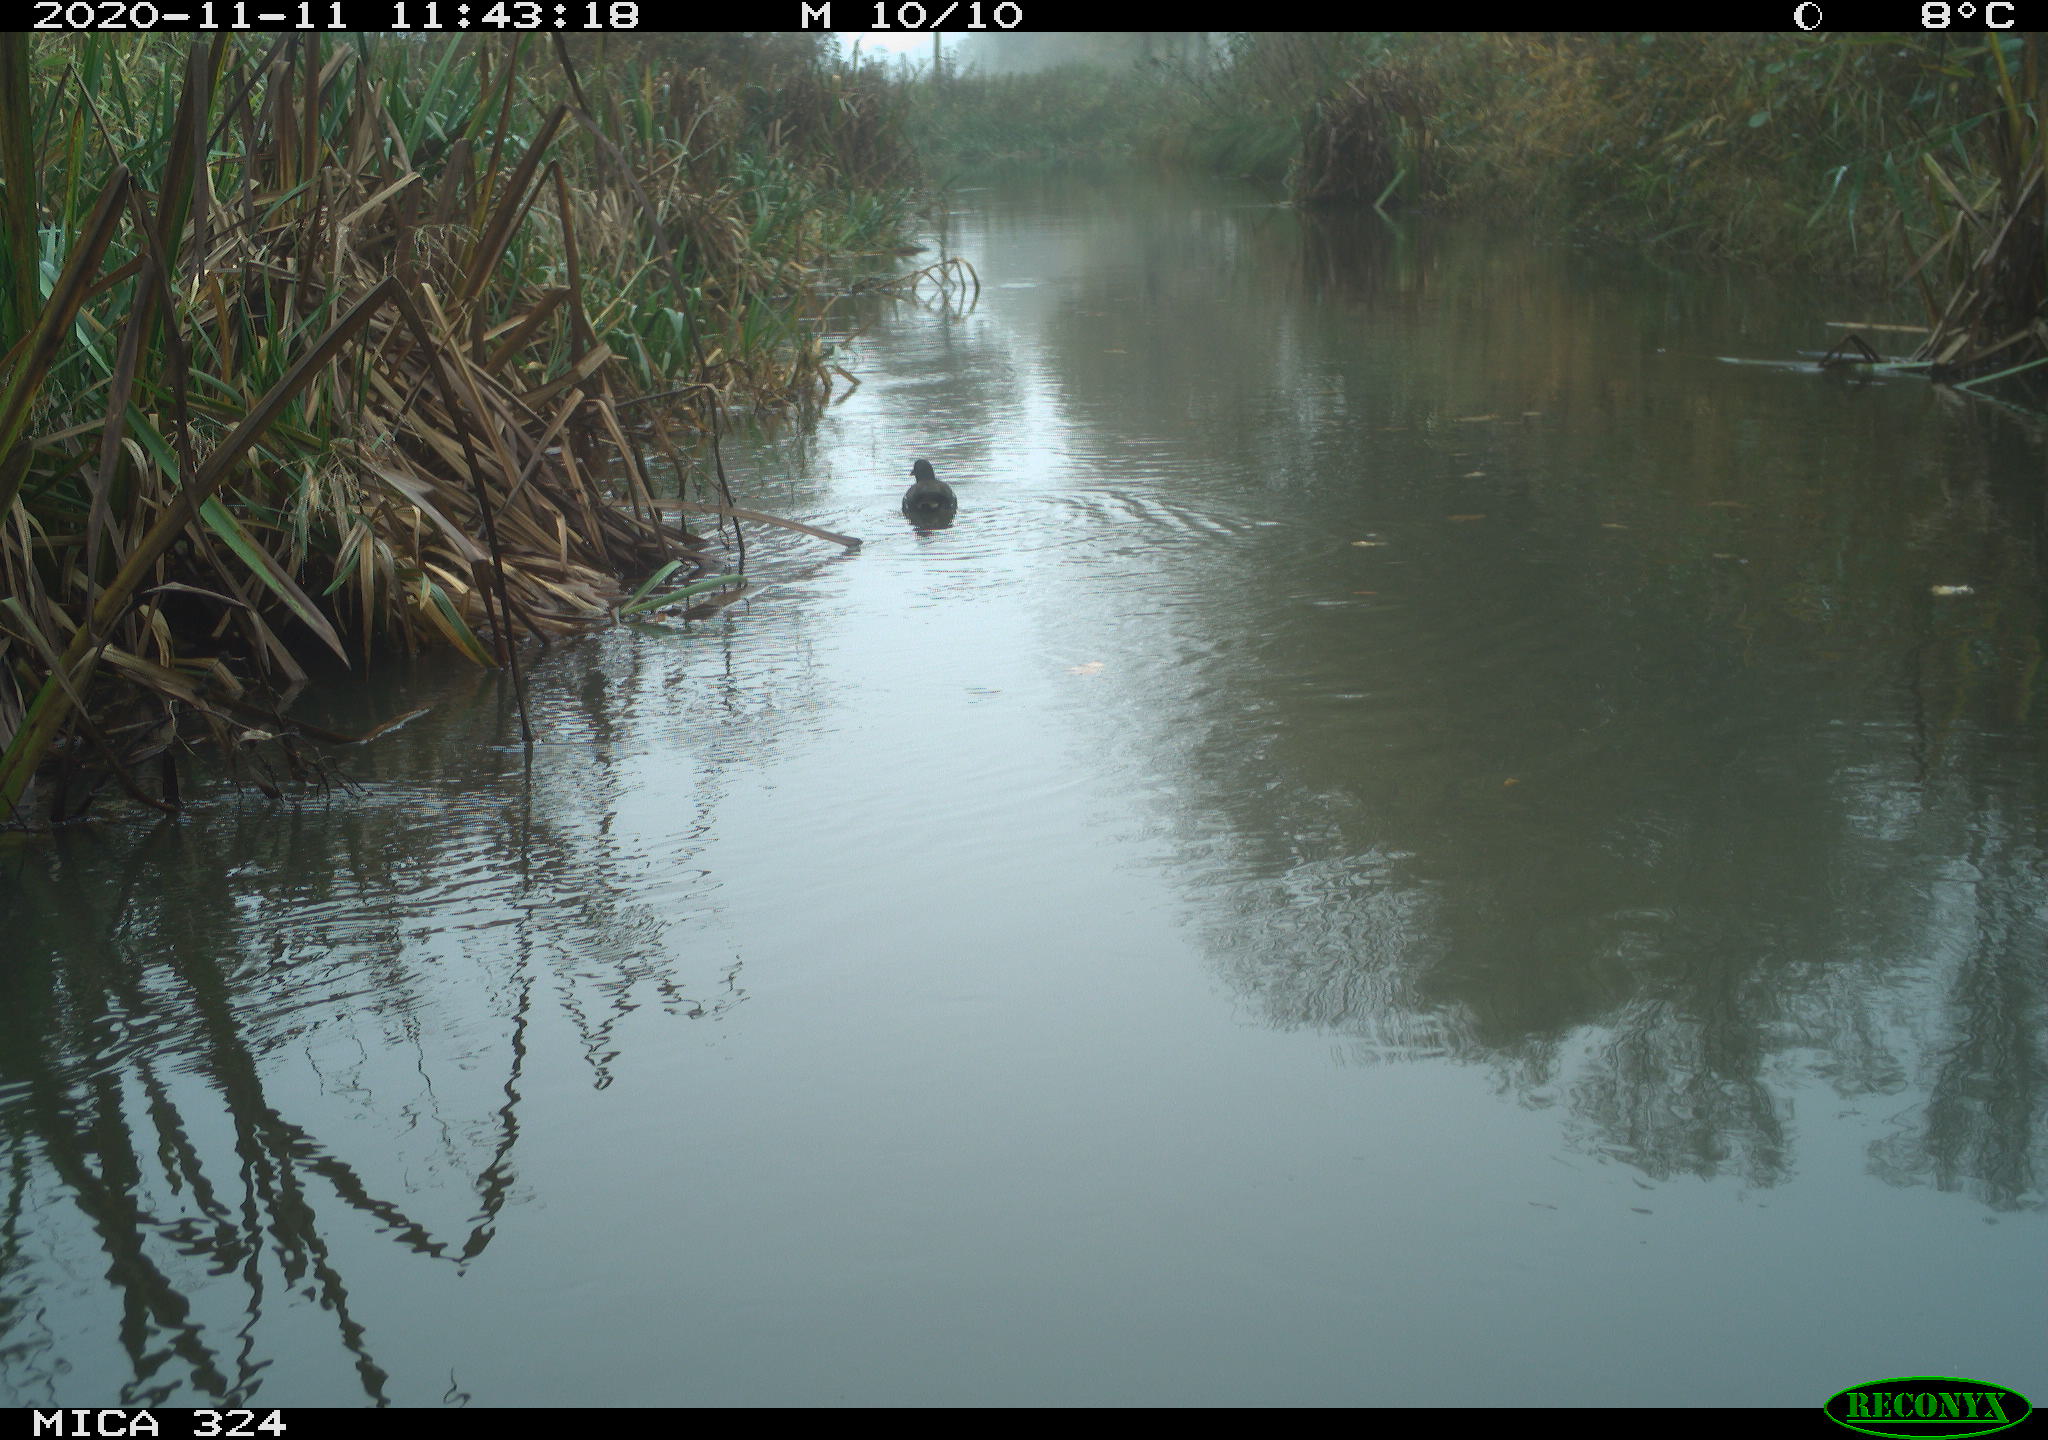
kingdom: Animalia
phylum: Chordata
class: Aves
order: Gruiformes
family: Rallidae
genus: Gallinula
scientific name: Gallinula chloropus
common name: Common moorhen
